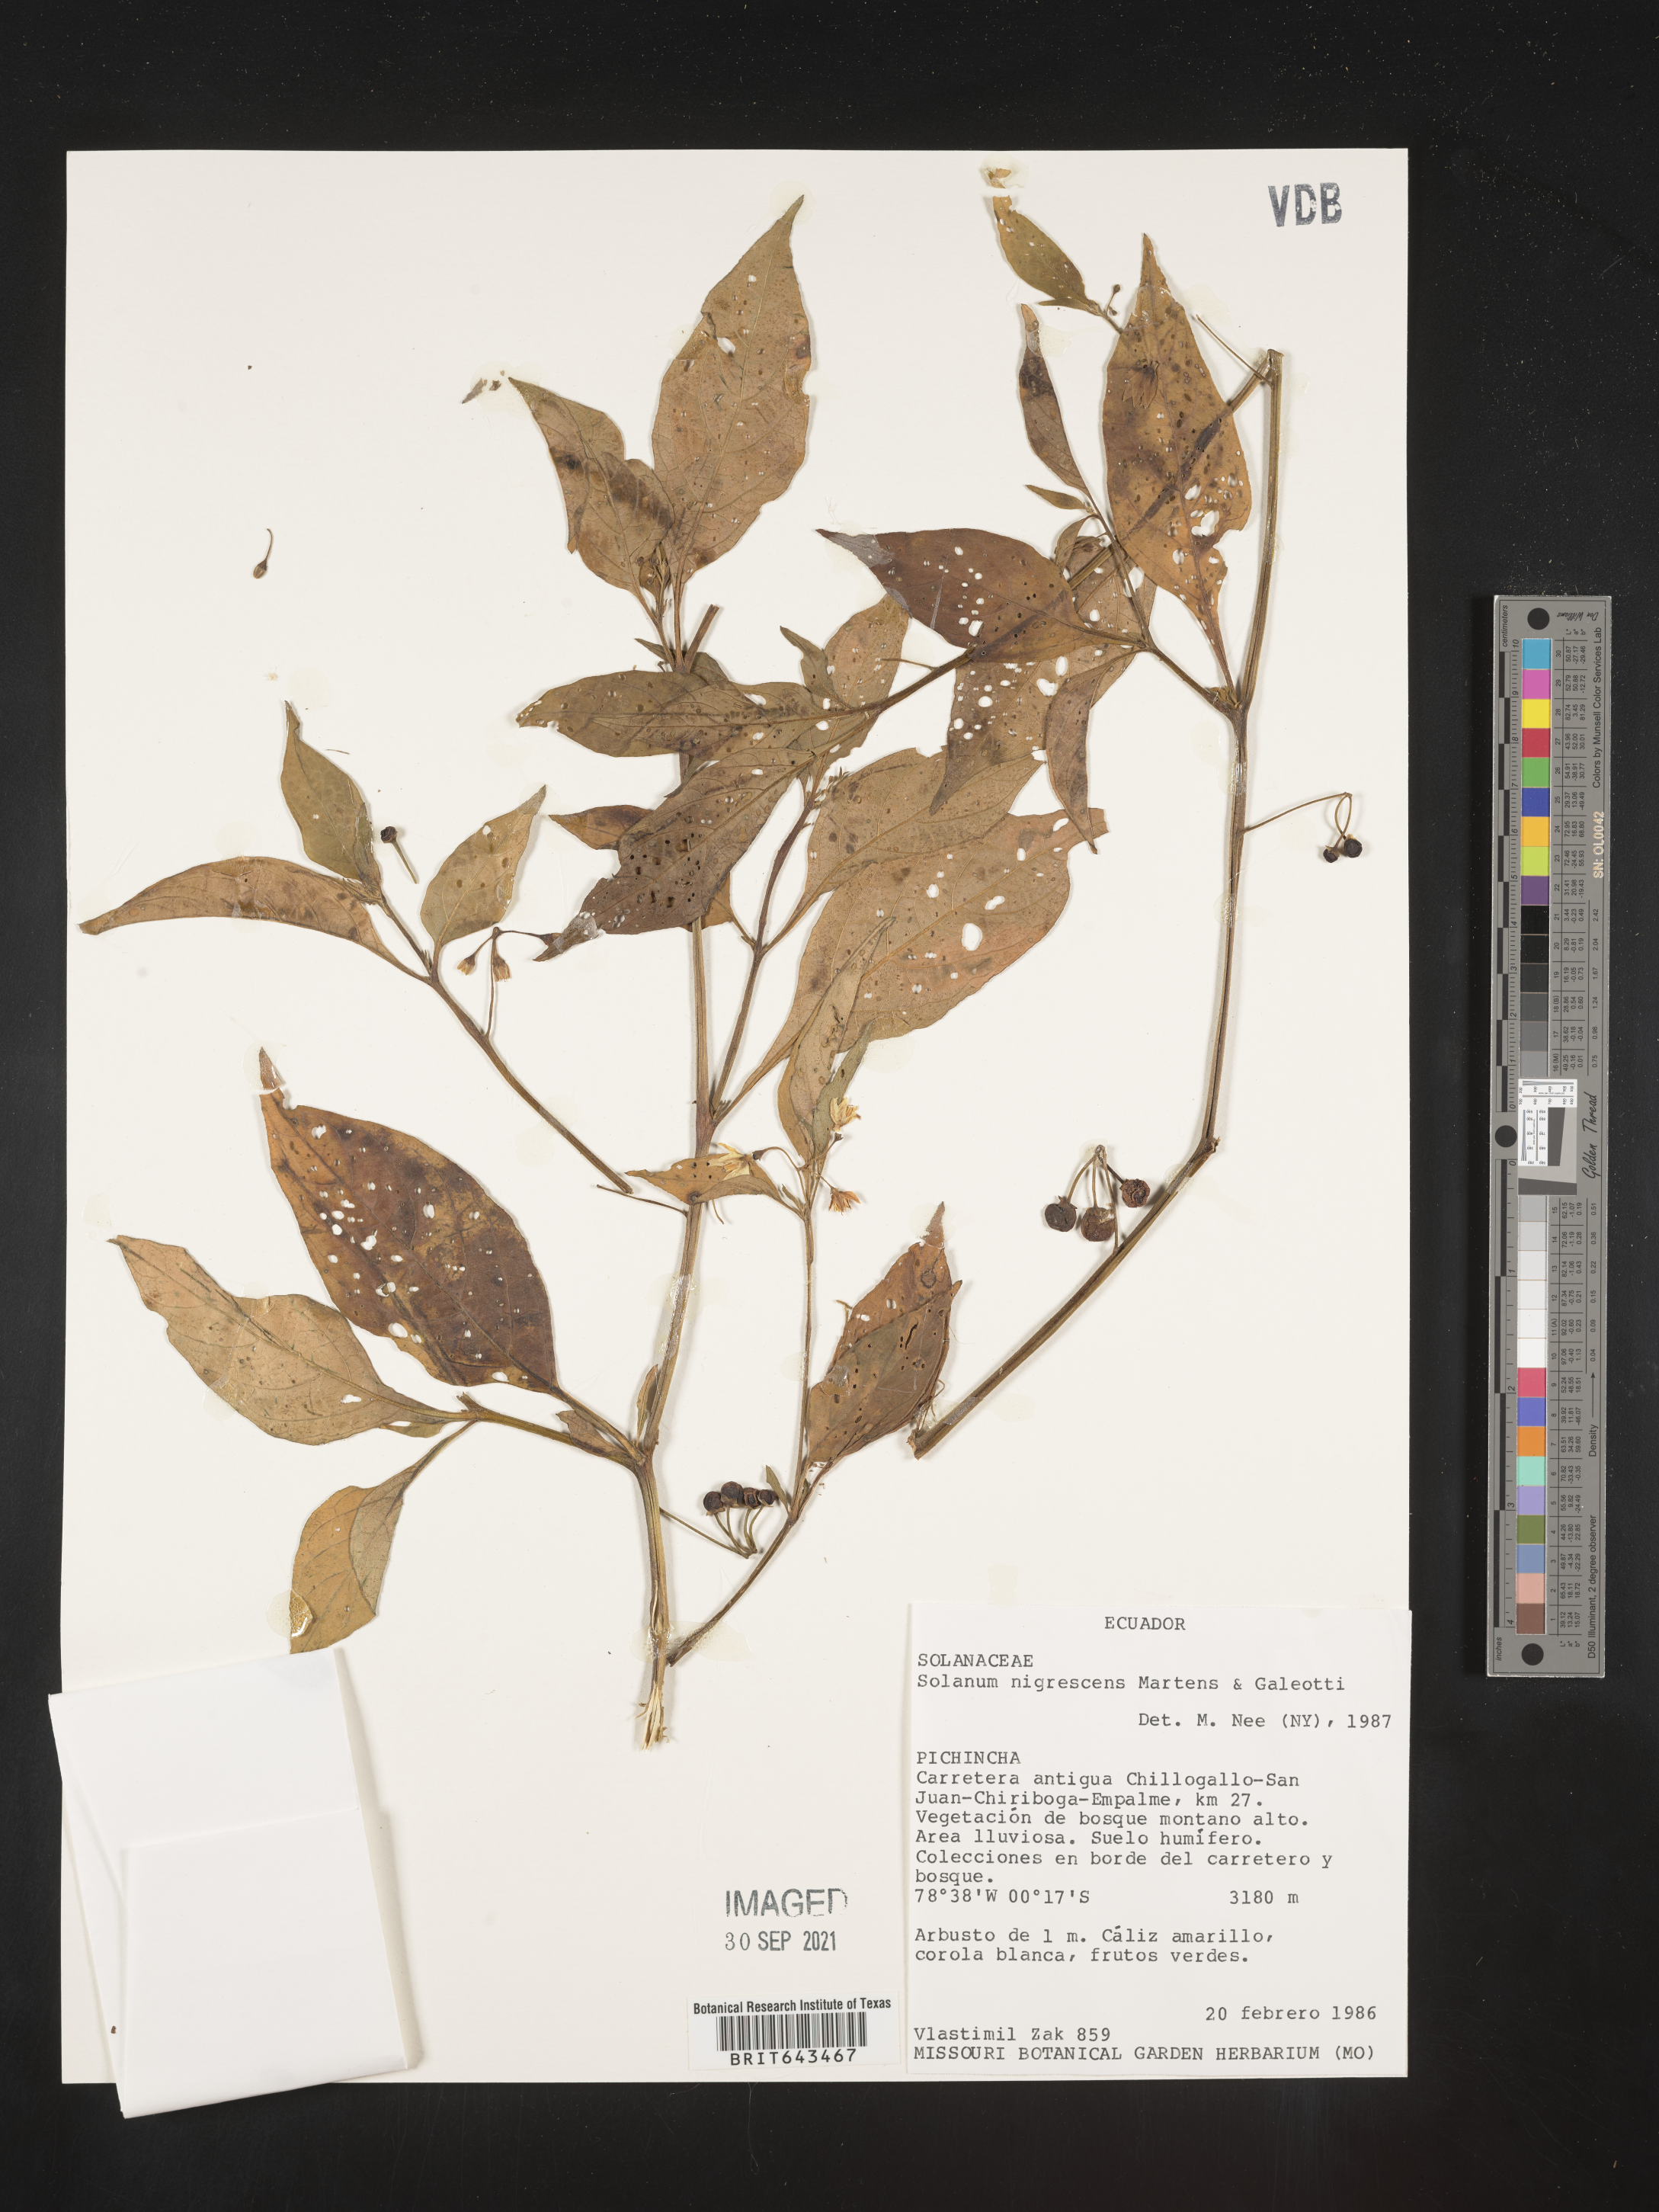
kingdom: Plantae
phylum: Tracheophyta
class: Magnoliopsida
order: Solanales
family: Solanaceae
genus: Solanum
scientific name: Solanum
